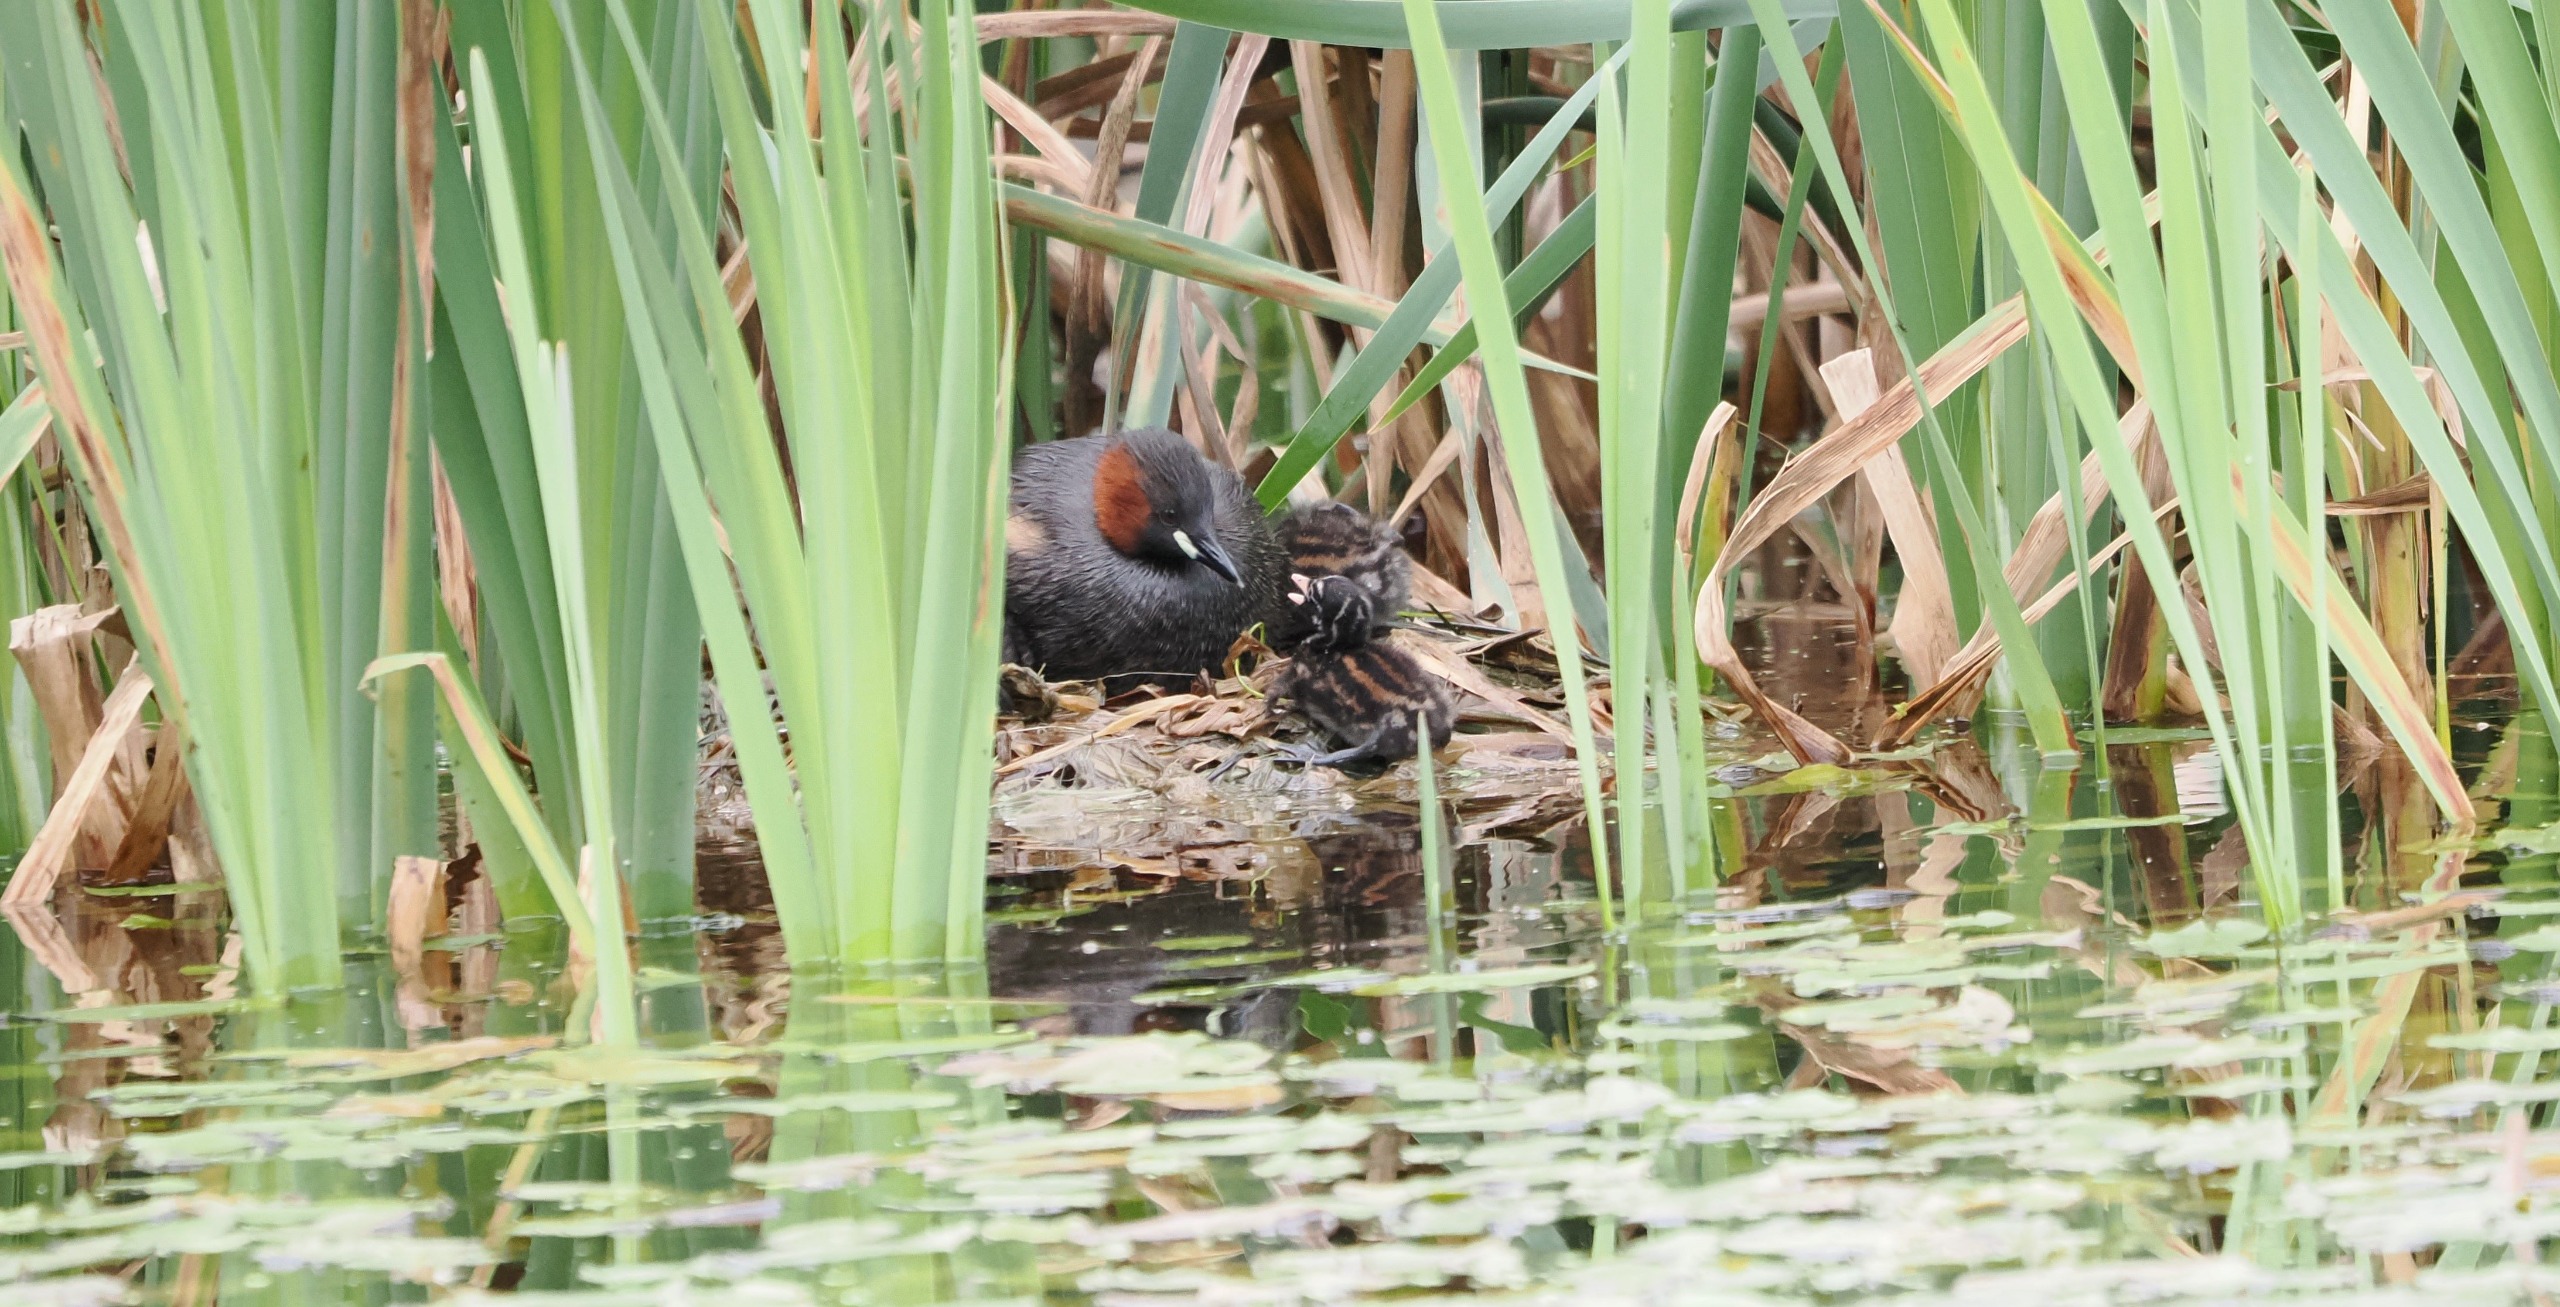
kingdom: Animalia
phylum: Chordata
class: Aves
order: Podicipediformes
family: Podicipedidae
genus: Tachybaptus
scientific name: Tachybaptus ruficollis
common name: Lille lappedykker
